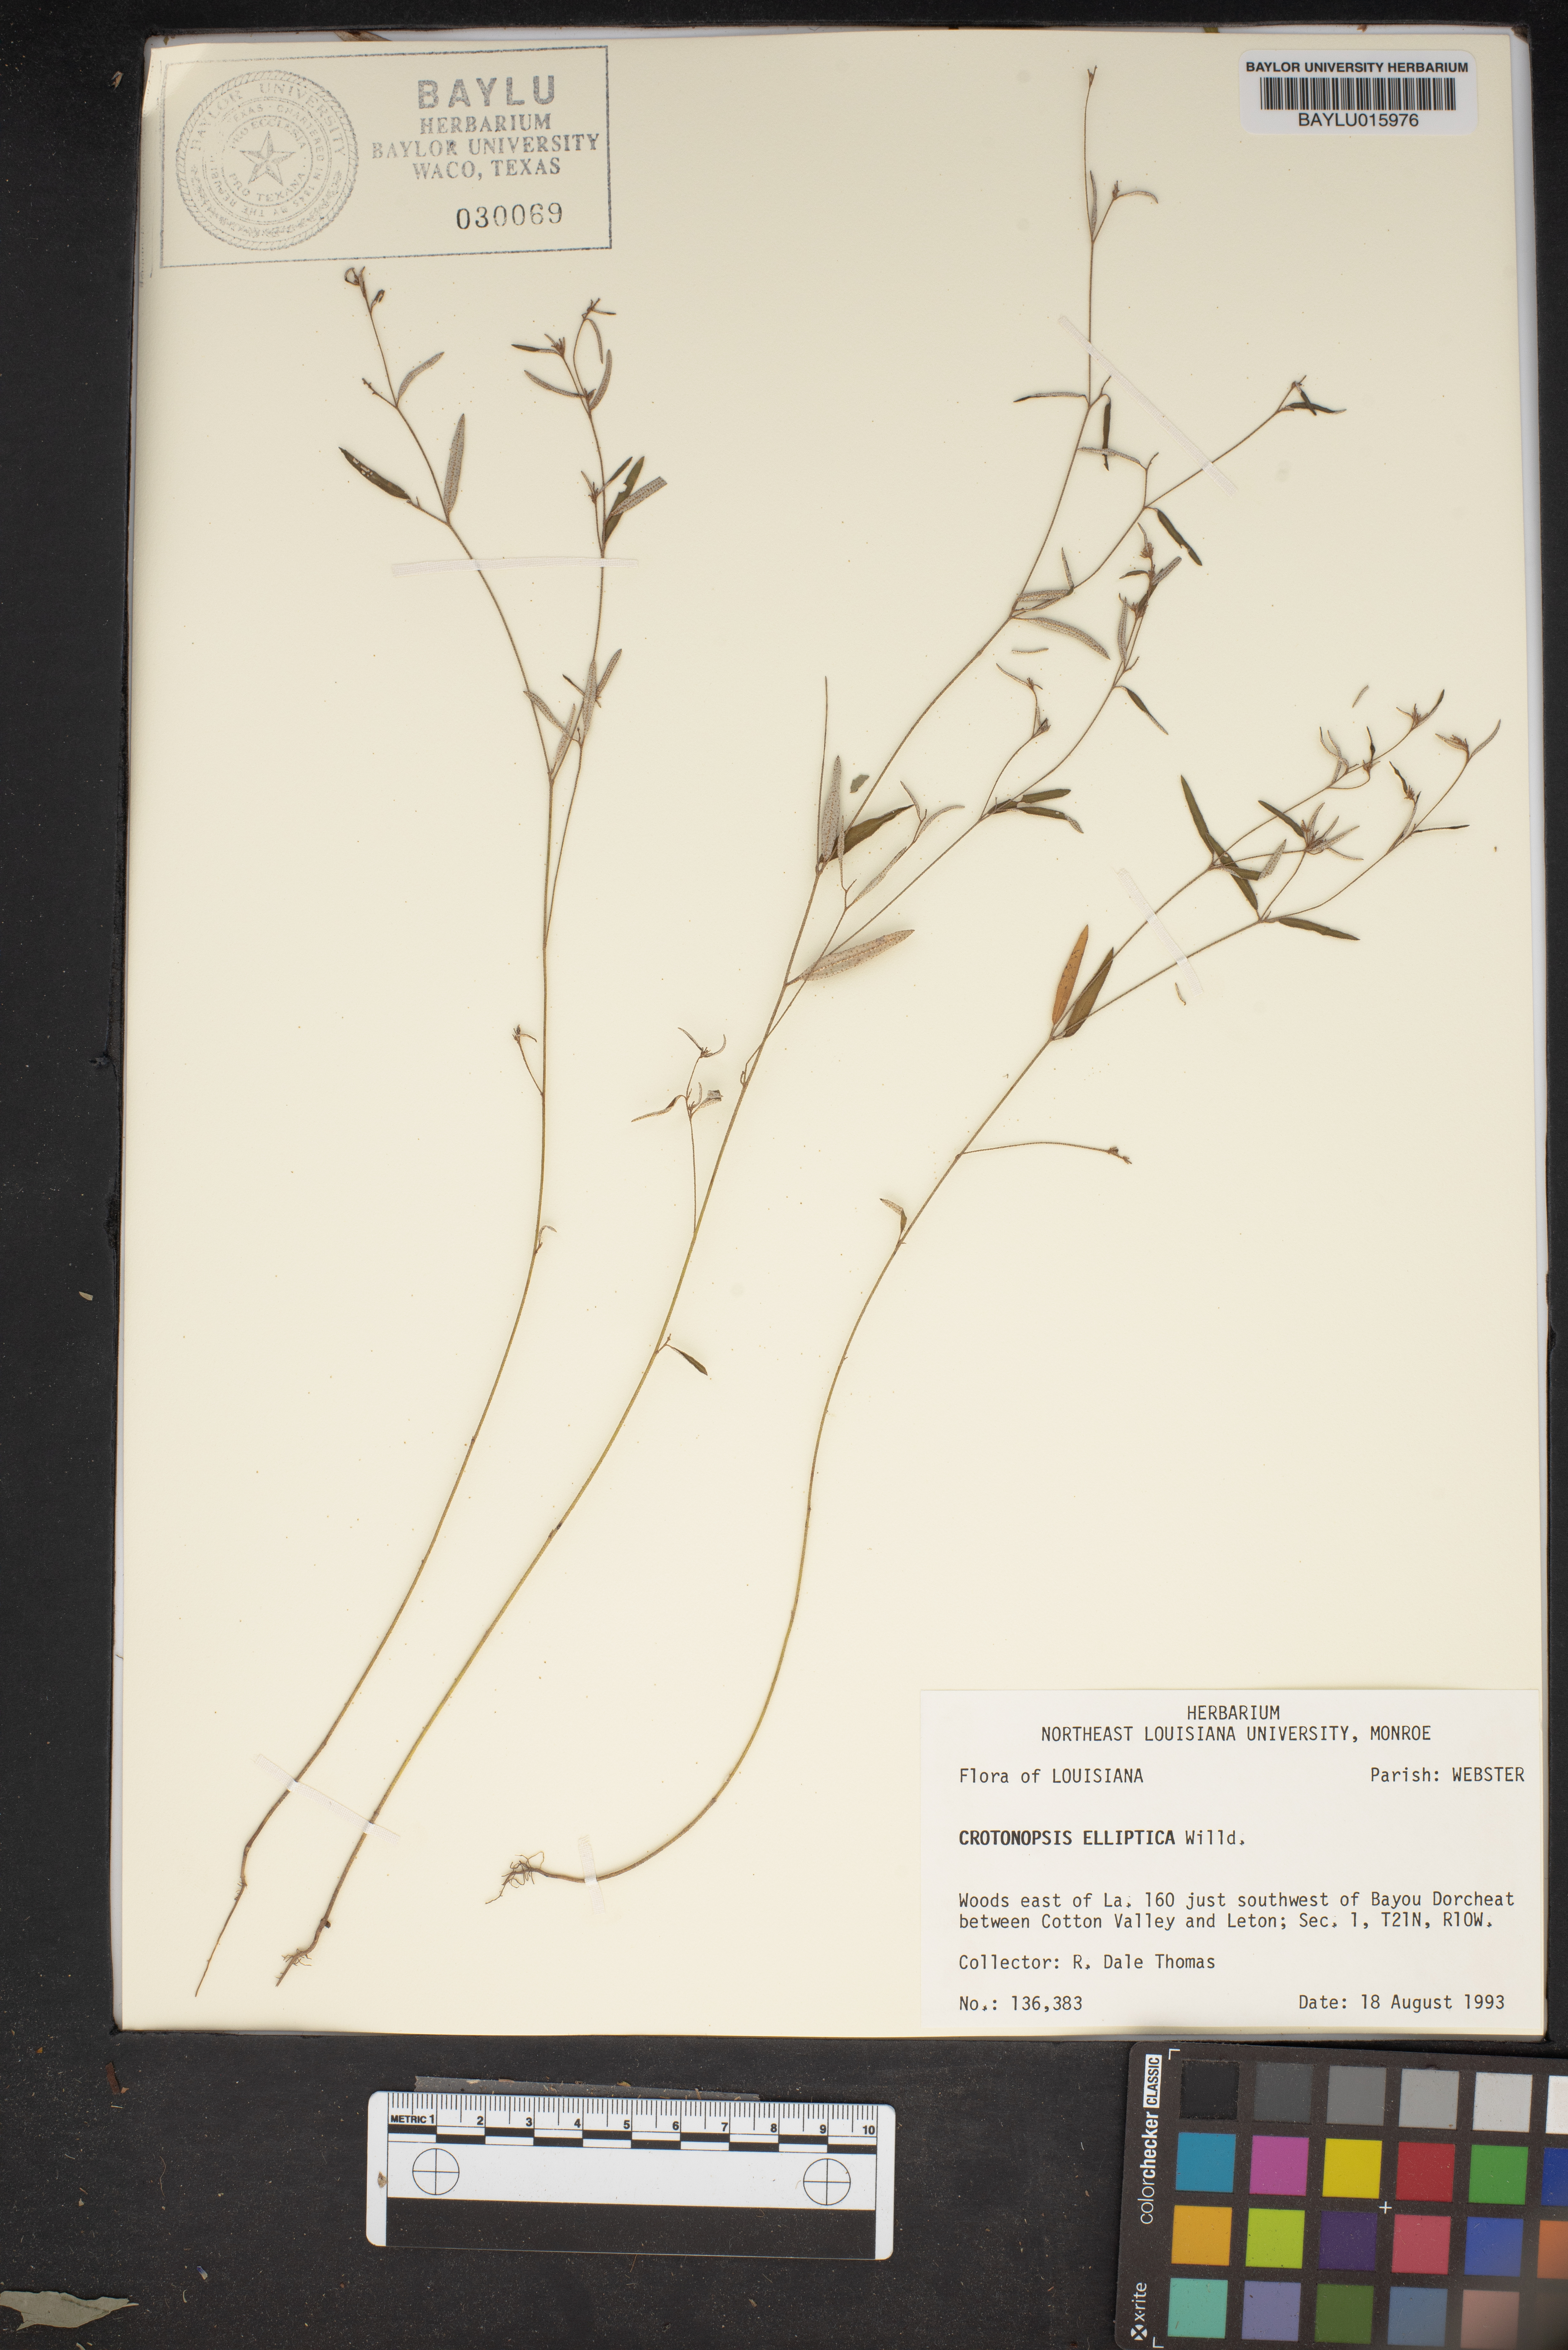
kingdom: Plantae
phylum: Tracheophyta
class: Magnoliopsida
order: Malpighiales
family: Euphorbiaceae
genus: Croton
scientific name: Croton michauxii
